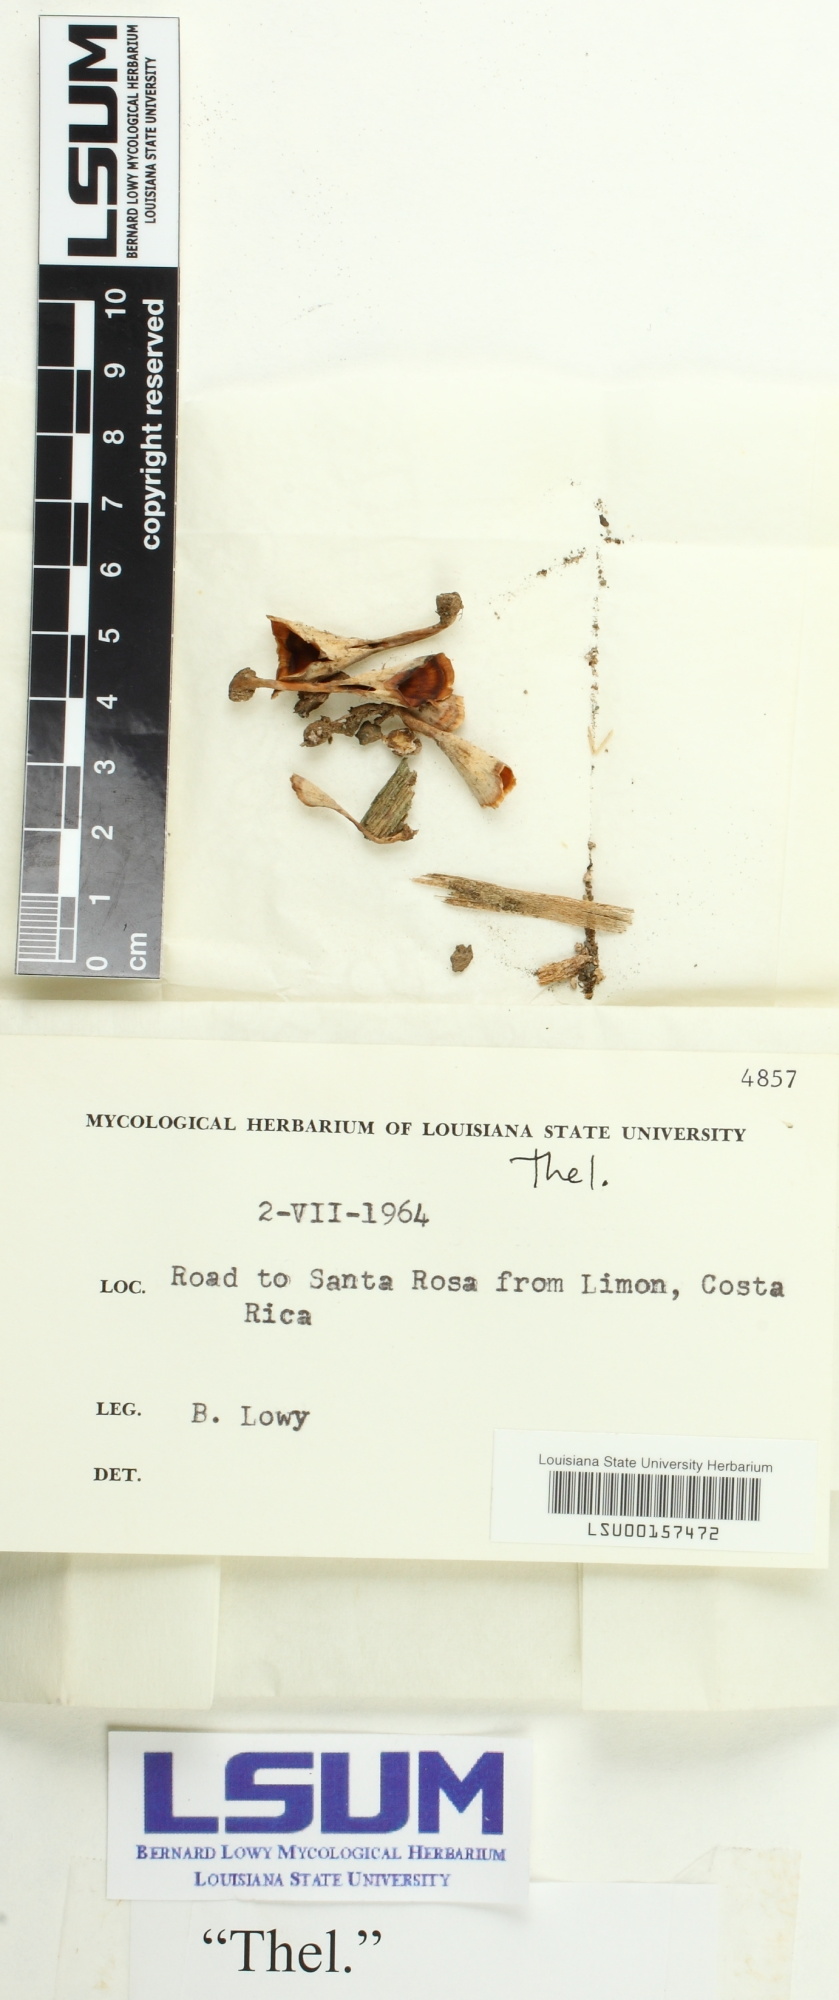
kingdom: Fungi
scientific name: Fungi
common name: Fungi
